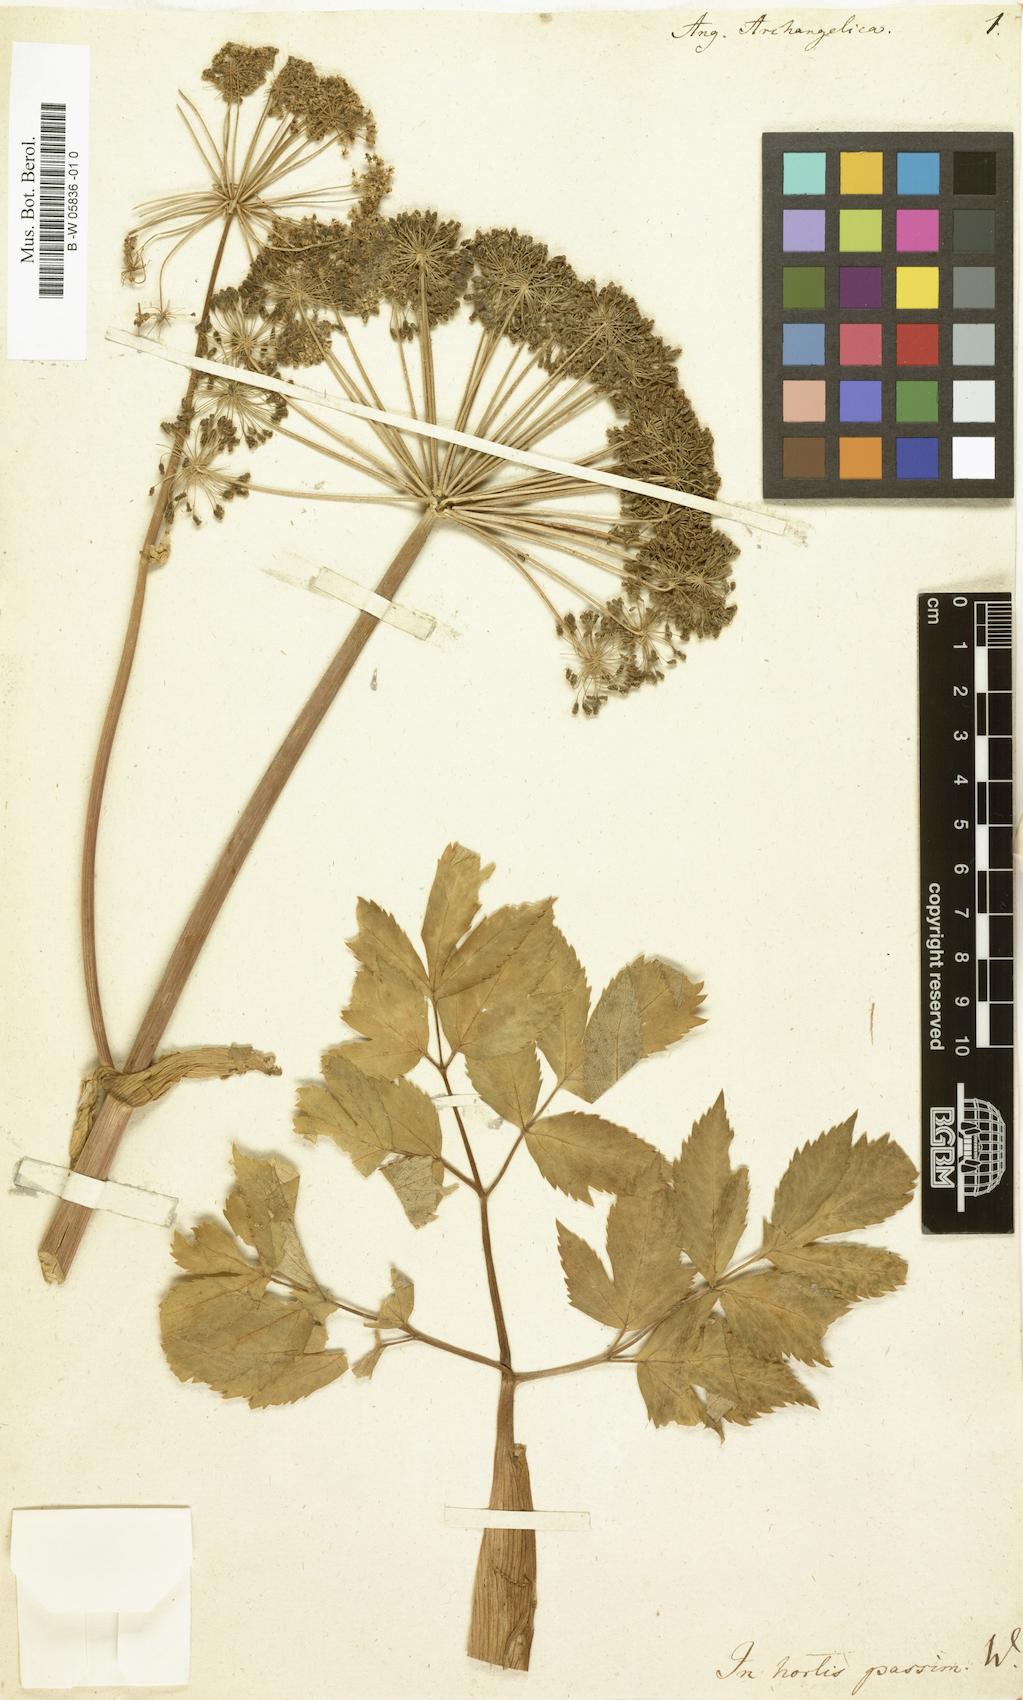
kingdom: Plantae
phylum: Tracheophyta
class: Magnoliopsida
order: Apiales
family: Apiaceae
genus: Angelica
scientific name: Angelica archangelica
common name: Garden angelica
